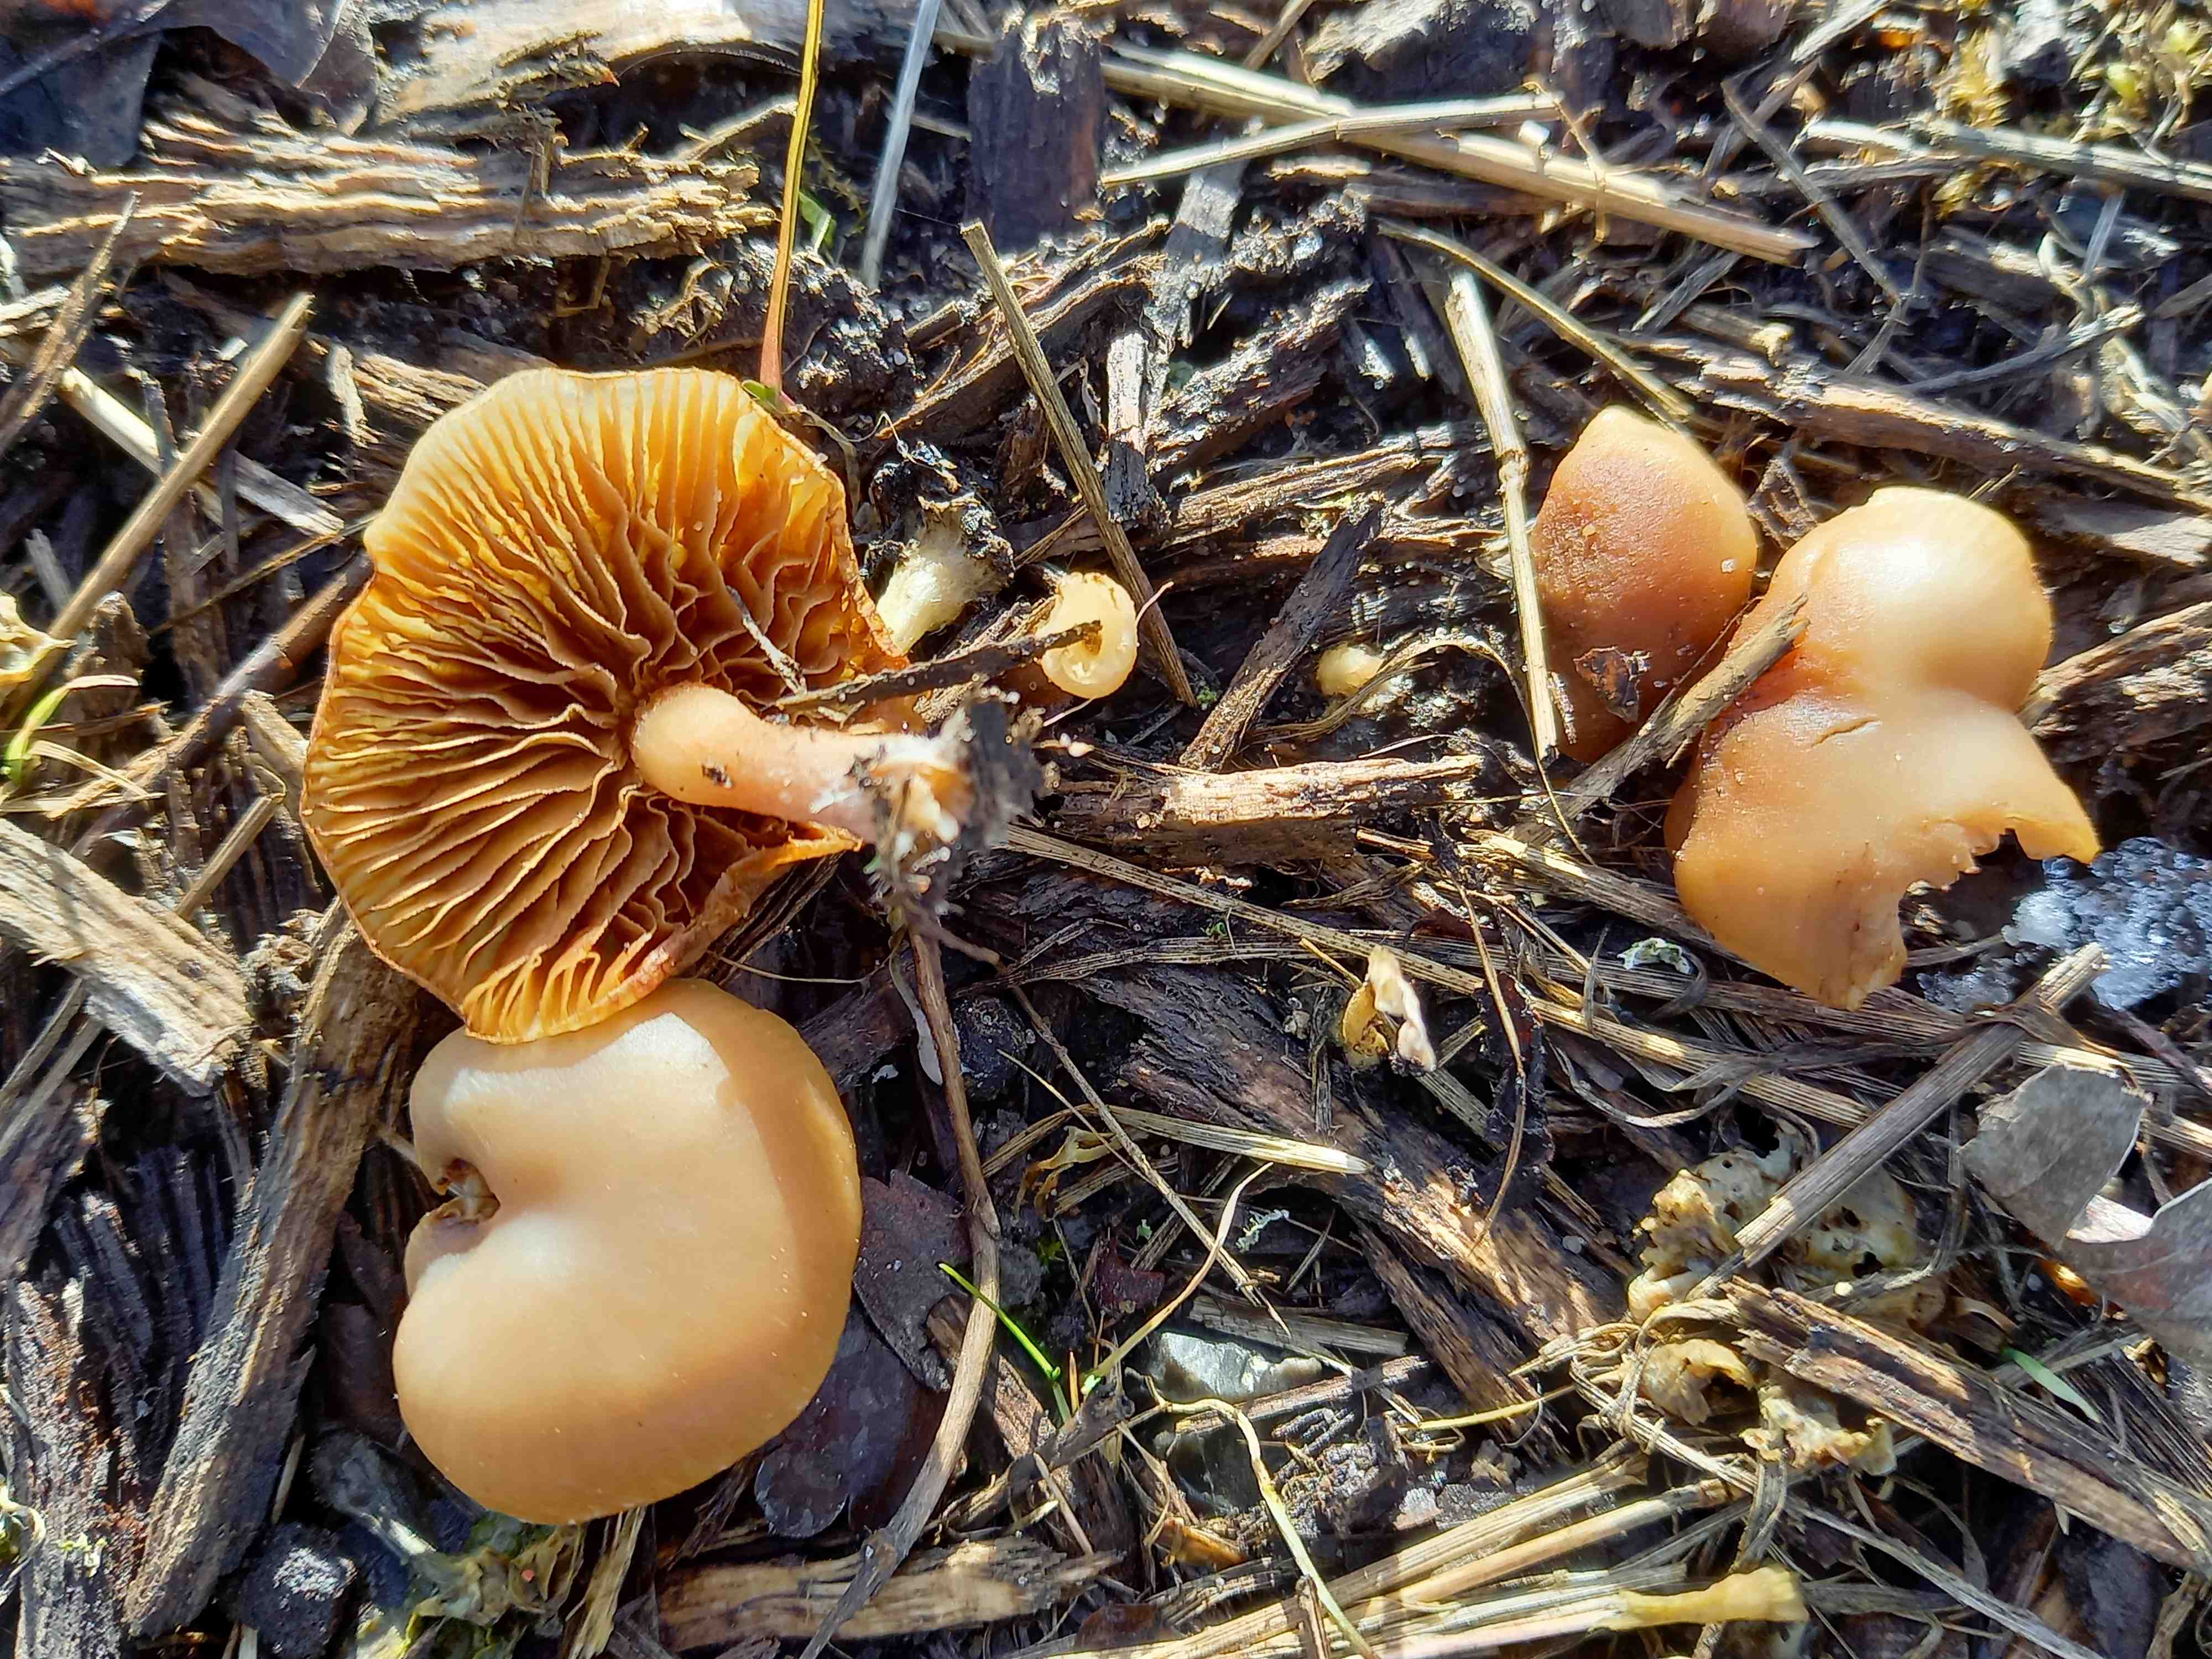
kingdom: Fungi
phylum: Basidiomycota
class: Agaricomycetes
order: Agaricales
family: Tubariaceae
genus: Tubaria
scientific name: Tubaria furfuracea
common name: kliddet fnughat
